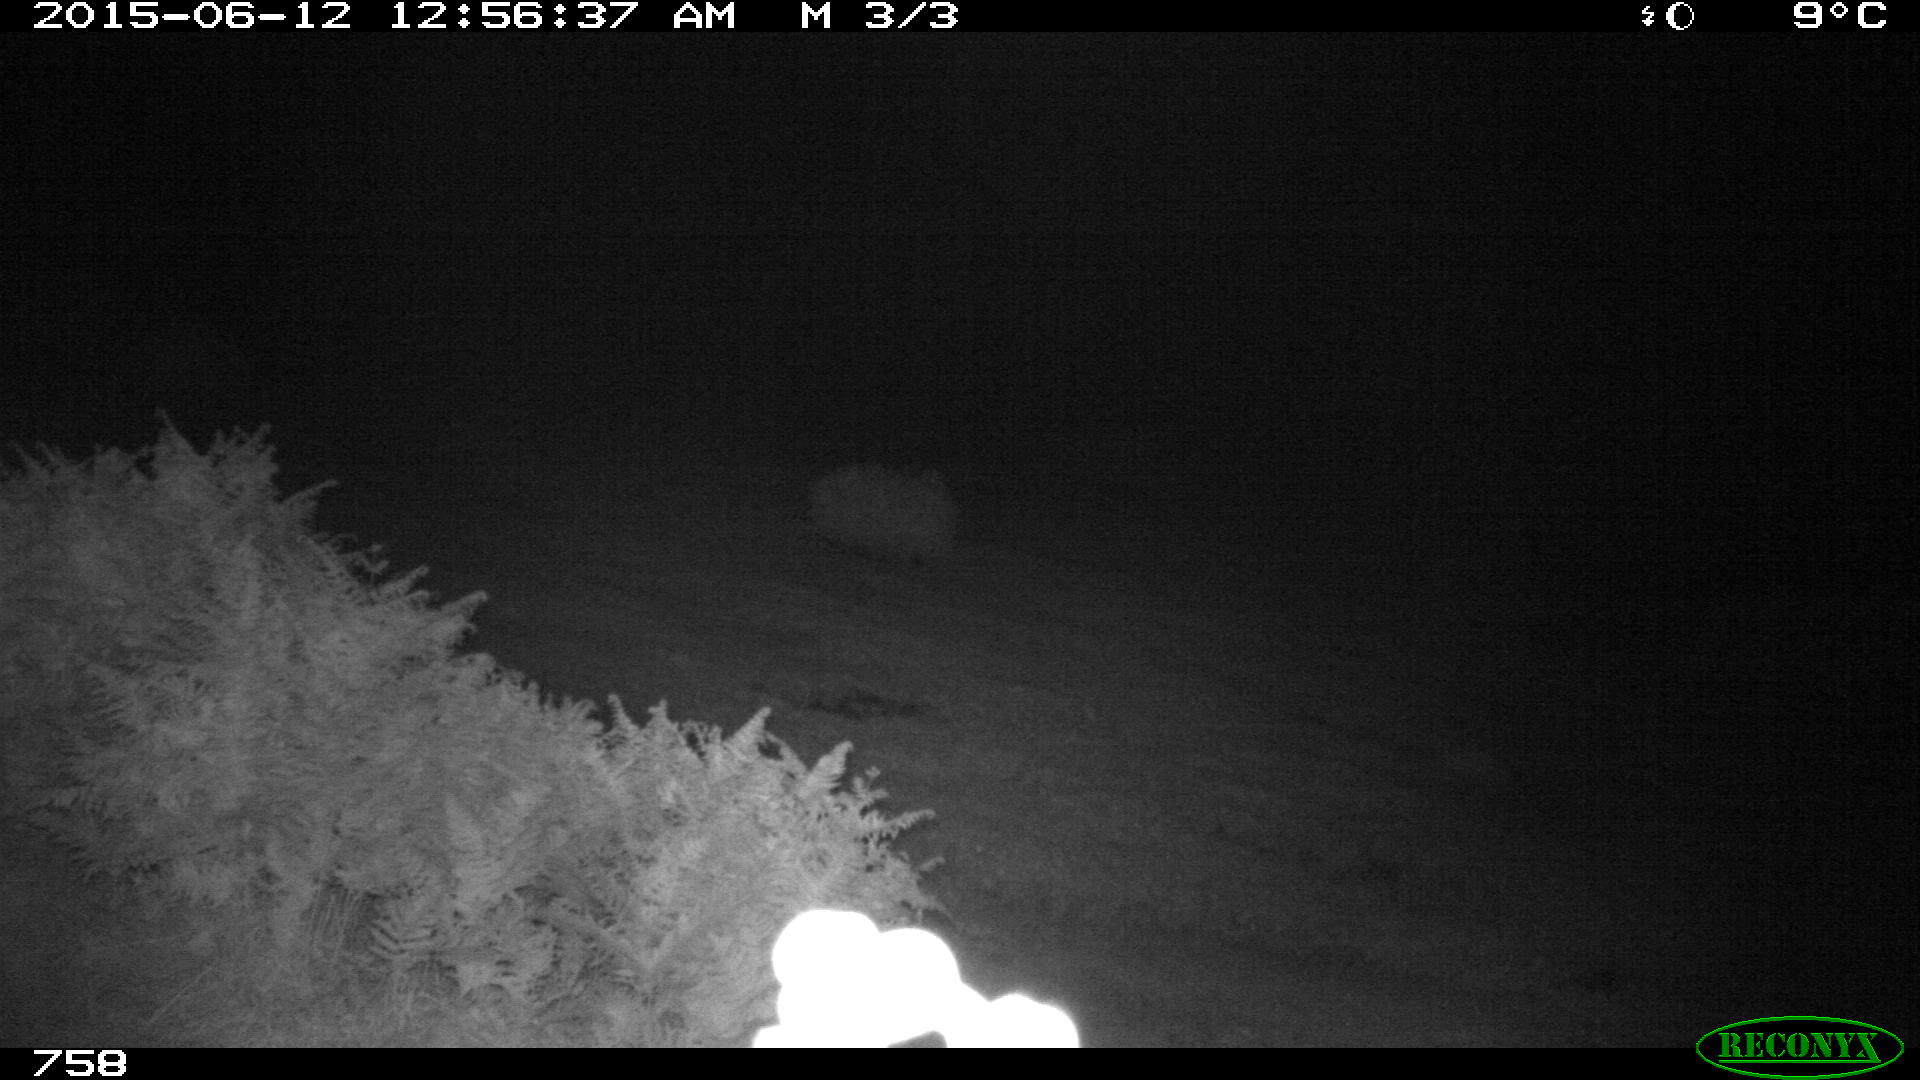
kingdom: Animalia
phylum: Chordata
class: Mammalia
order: Artiodactyla
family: Bovidae
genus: Bos
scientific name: Bos taurus
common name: Domesticated cattle
